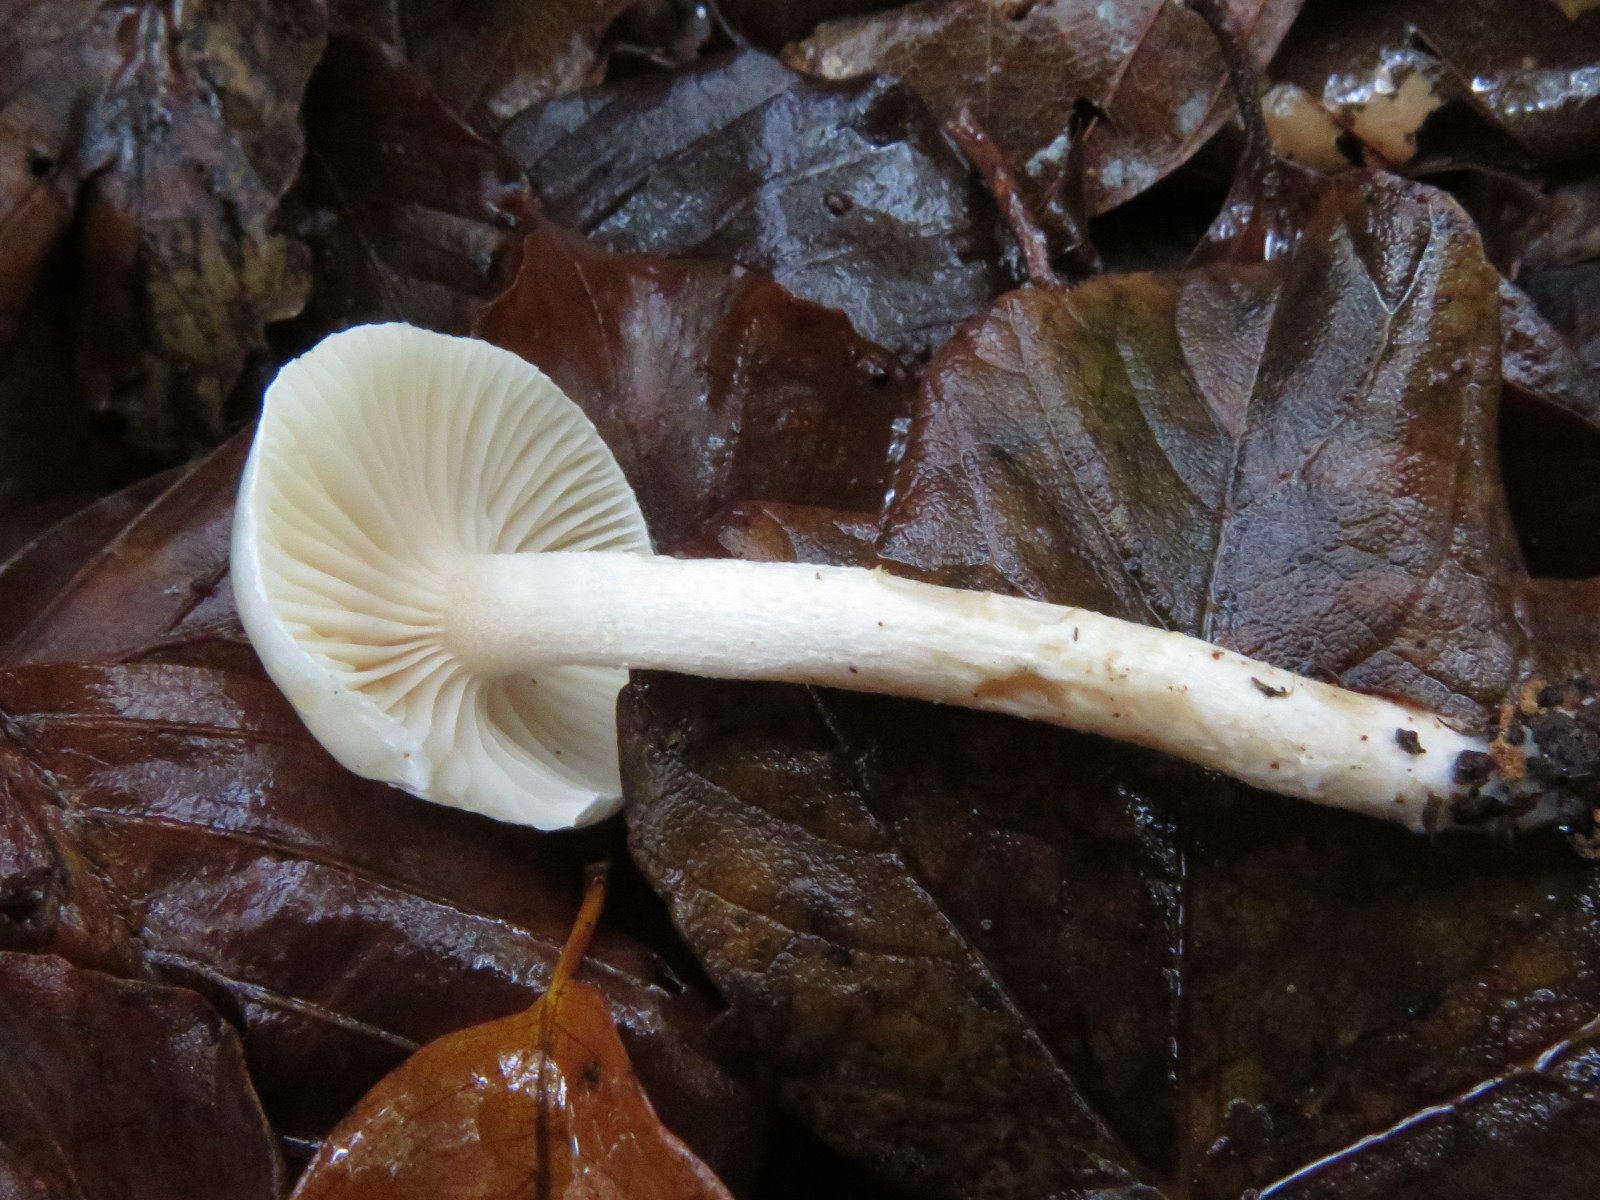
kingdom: Fungi
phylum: Basidiomycota
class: Agaricomycetes
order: Agaricales
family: Hygrophoraceae
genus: Hygrophorus
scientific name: Hygrophorus unicolor
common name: orangeøjet sneglehat
